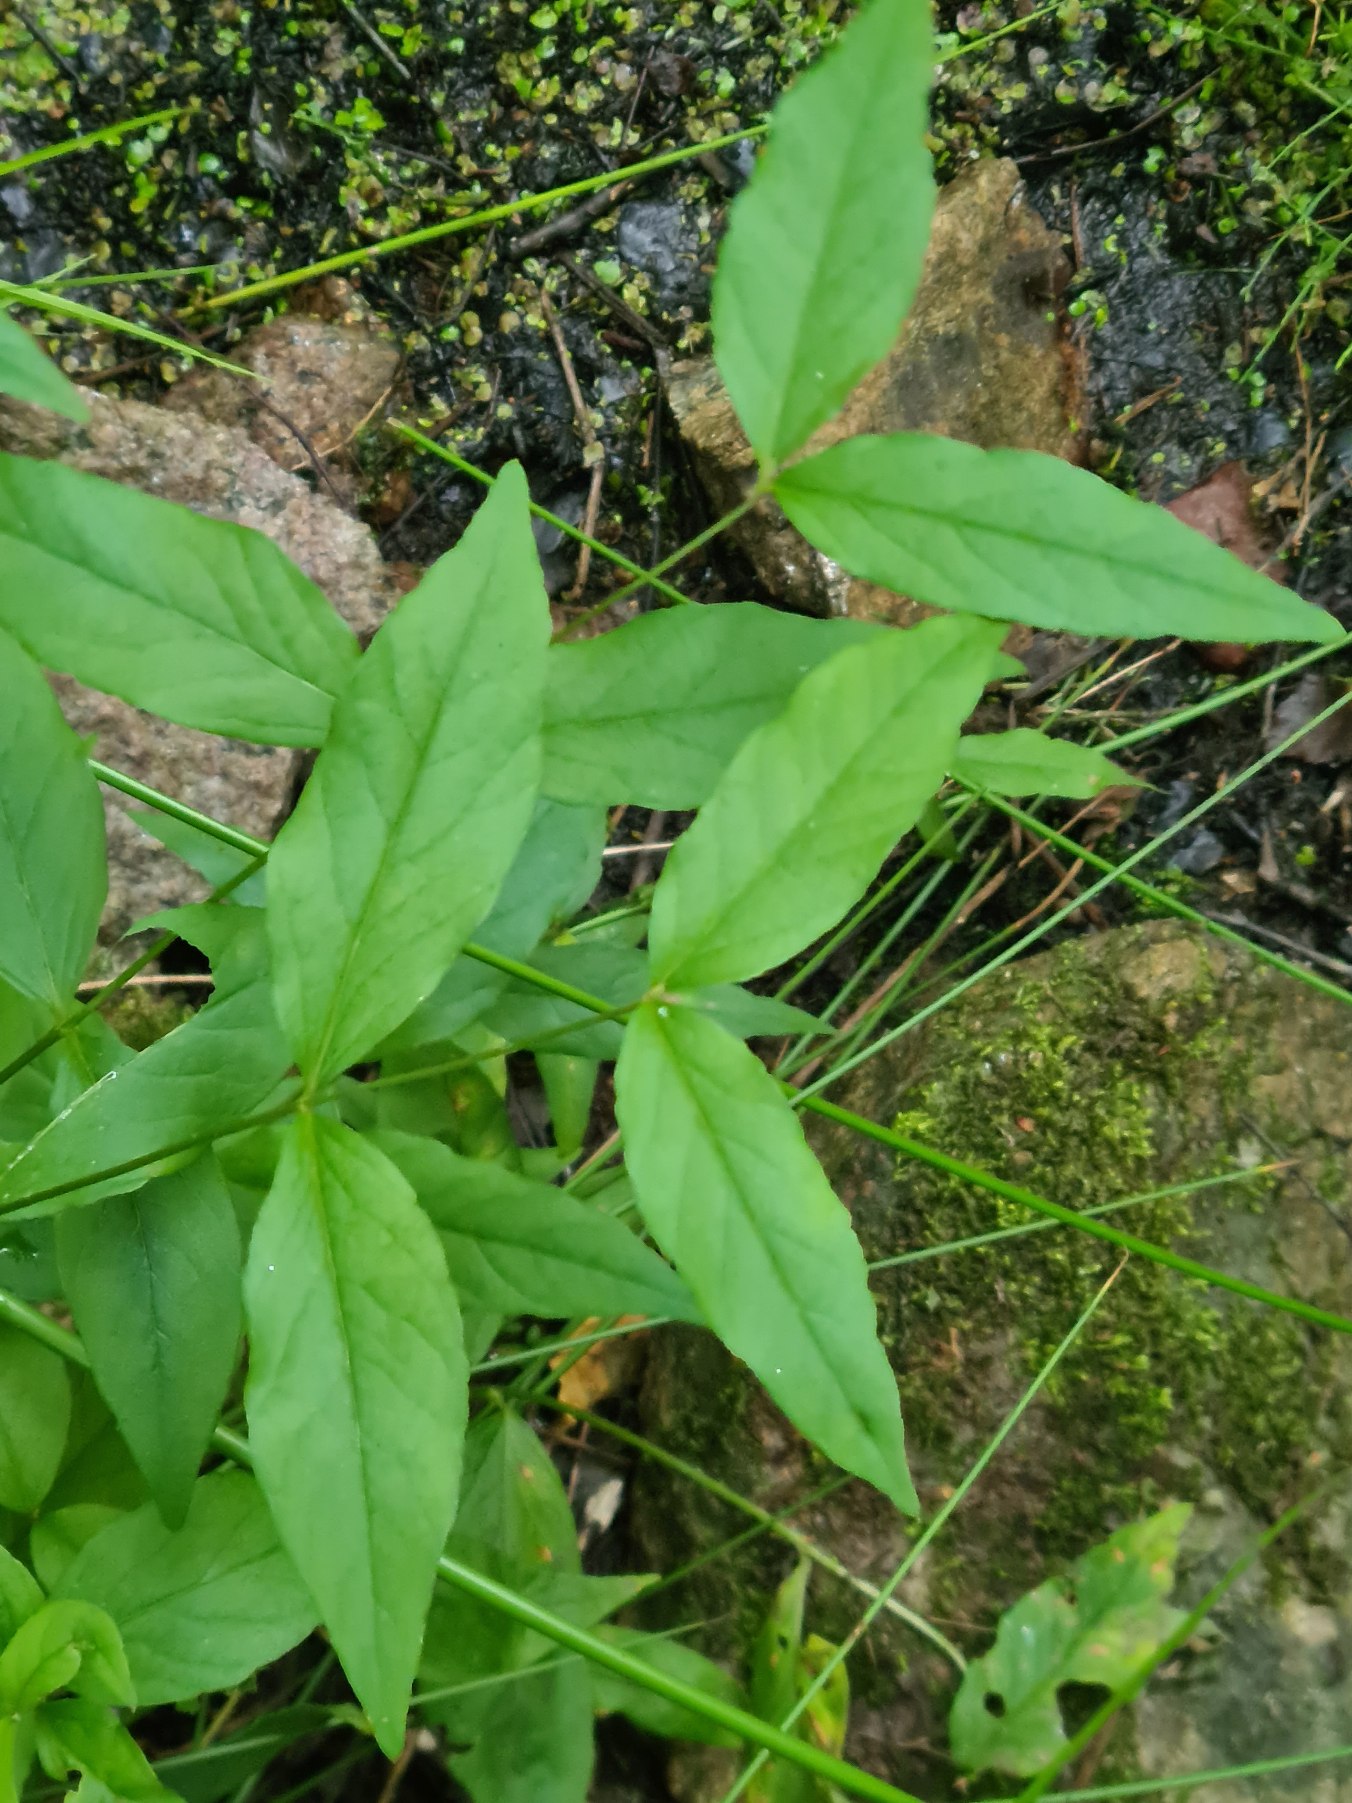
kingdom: Plantae
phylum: Tracheophyta
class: Magnoliopsida
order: Ericales
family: Primulaceae
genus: Lysimachia
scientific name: Lysimachia vulgaris
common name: Almindelig fredløs
